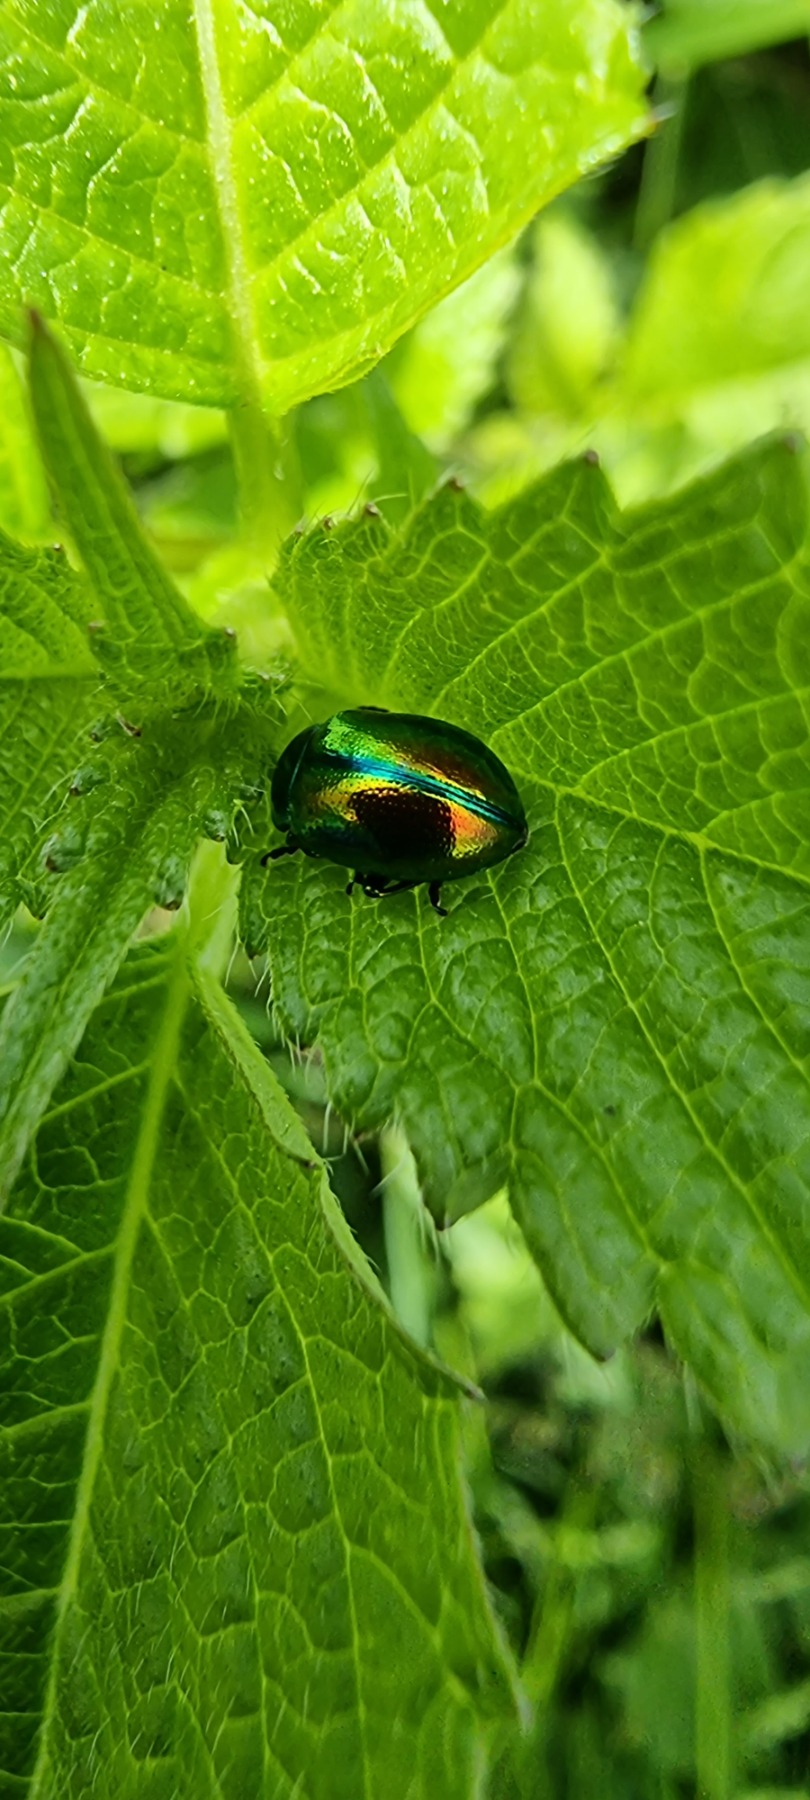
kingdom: Animalia
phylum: Arthropoda
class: Insecta
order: Coleoptera
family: Chrysomelidae
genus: Chrysolina
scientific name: Chrysolina fastuosa
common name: Tvetandbladbille
